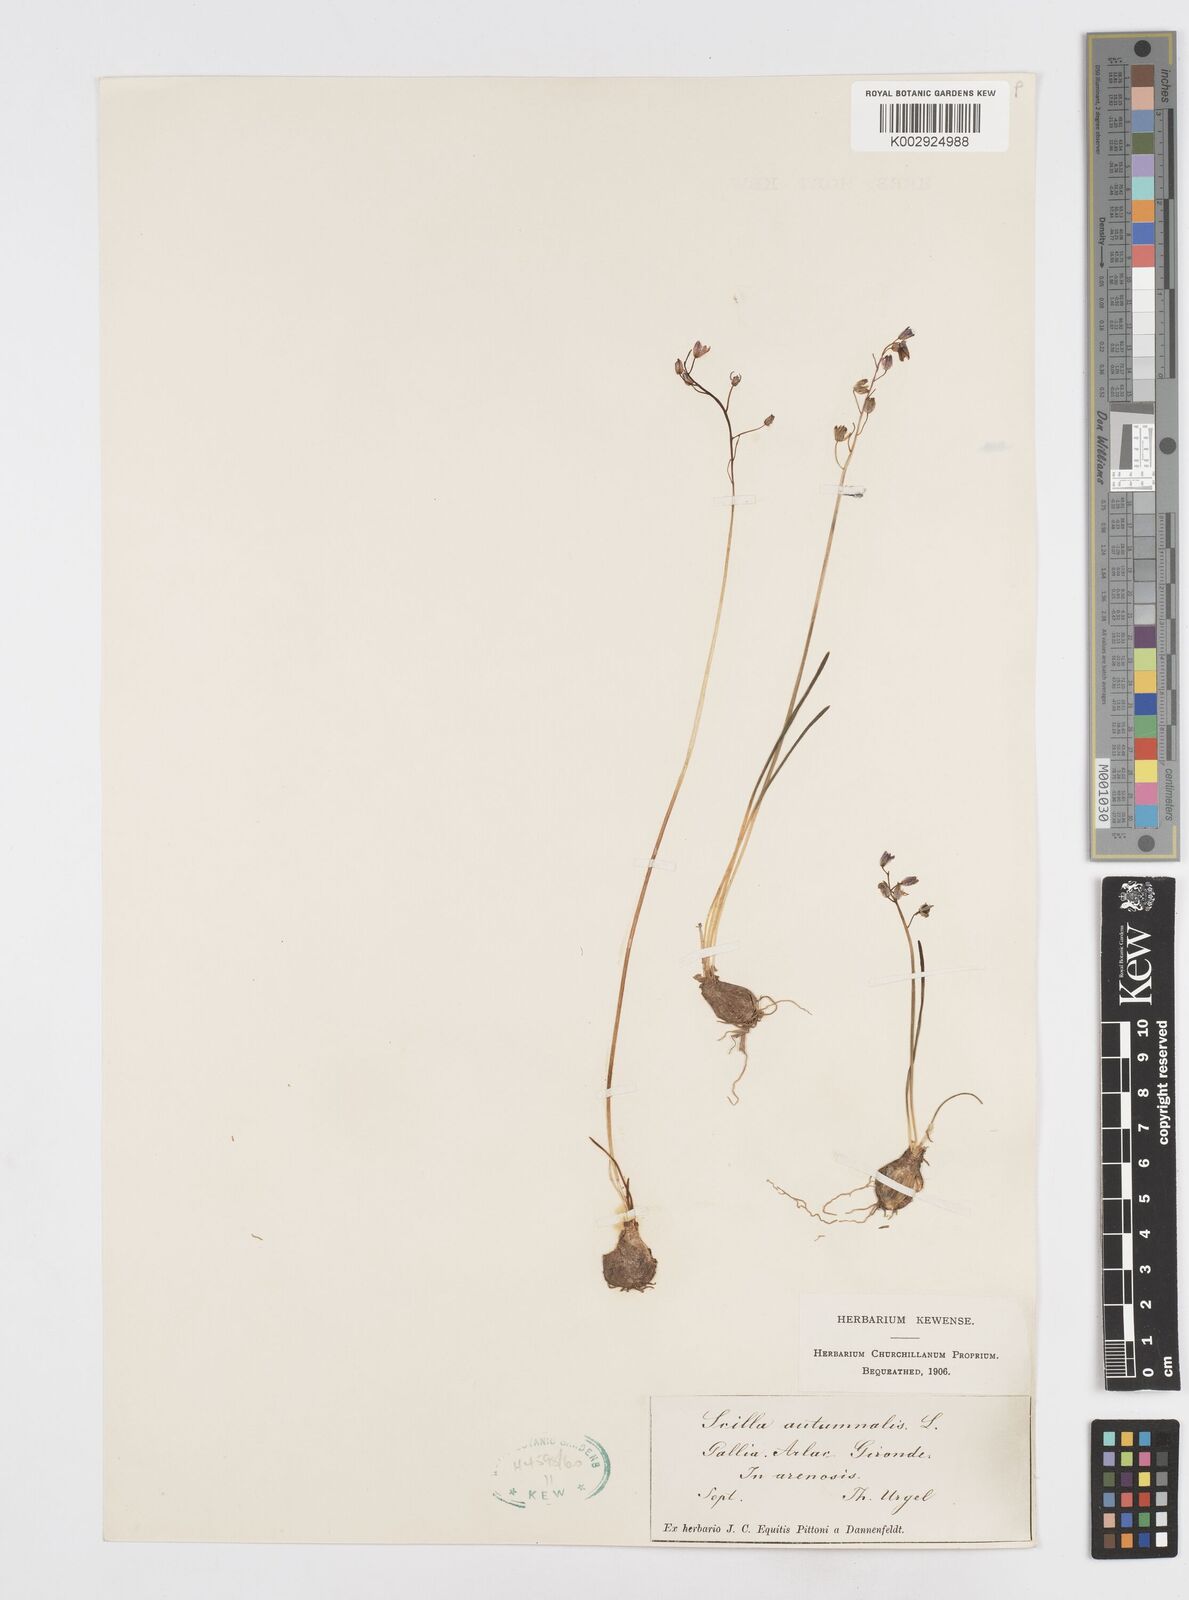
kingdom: Plantae
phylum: Tracheophyta
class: Liliopsida
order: Asparagales
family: Asparagaceae
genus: Prospero
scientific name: Prospero autumnale
